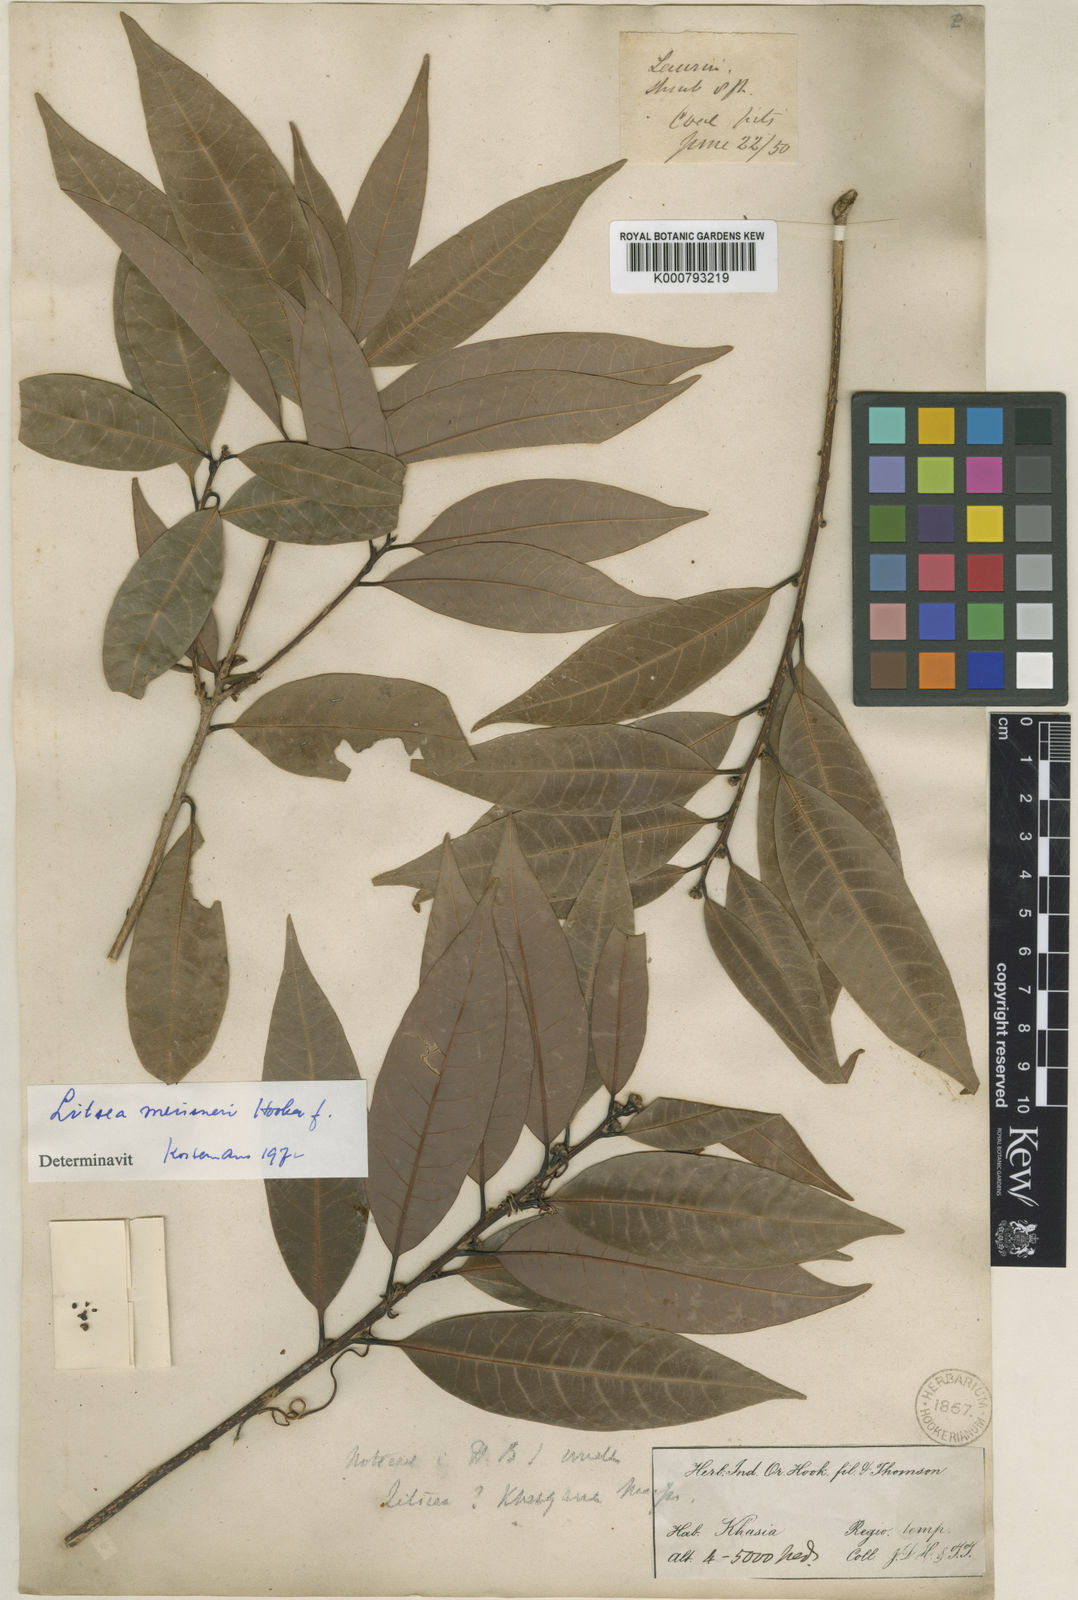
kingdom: Plantae
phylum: Tracheophyta
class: Magnoliopsida
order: Laurales
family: Lauraceae
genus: Litsea
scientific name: Litsea khasyana
